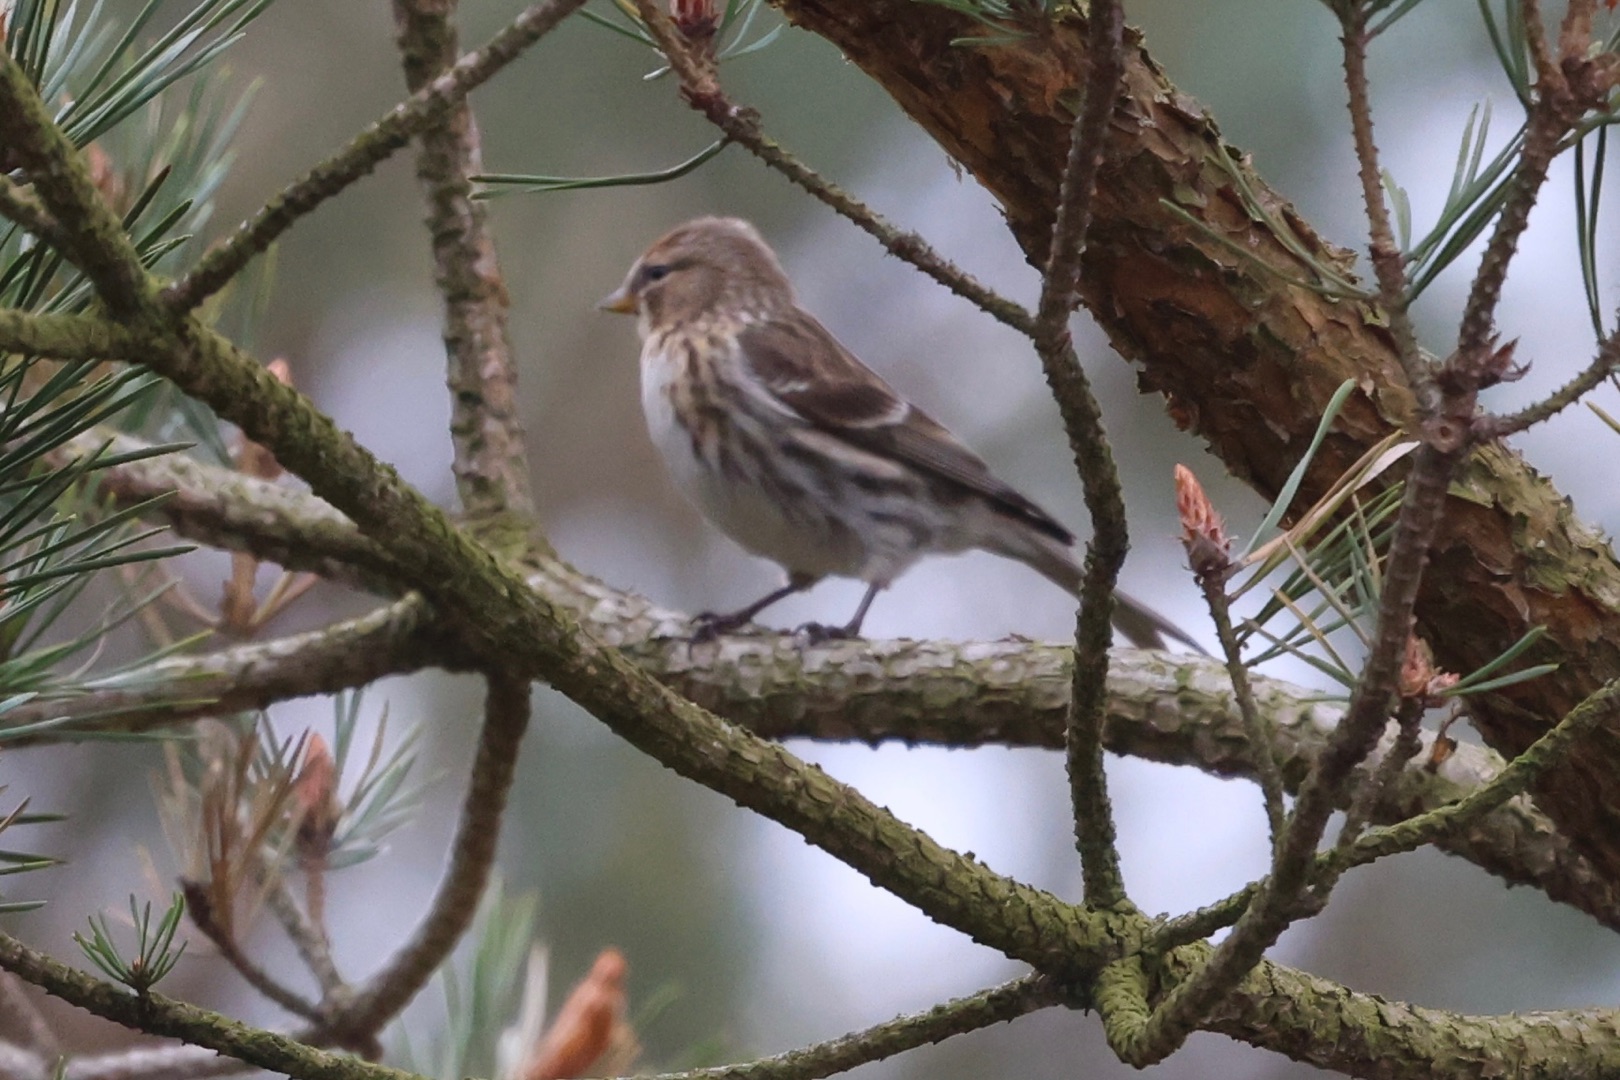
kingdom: Animalia
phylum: Chordata
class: Aves
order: Passeriformes
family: Fringillidae
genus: Acanthis
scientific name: Acanthis flammea
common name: Lille gråsisken
